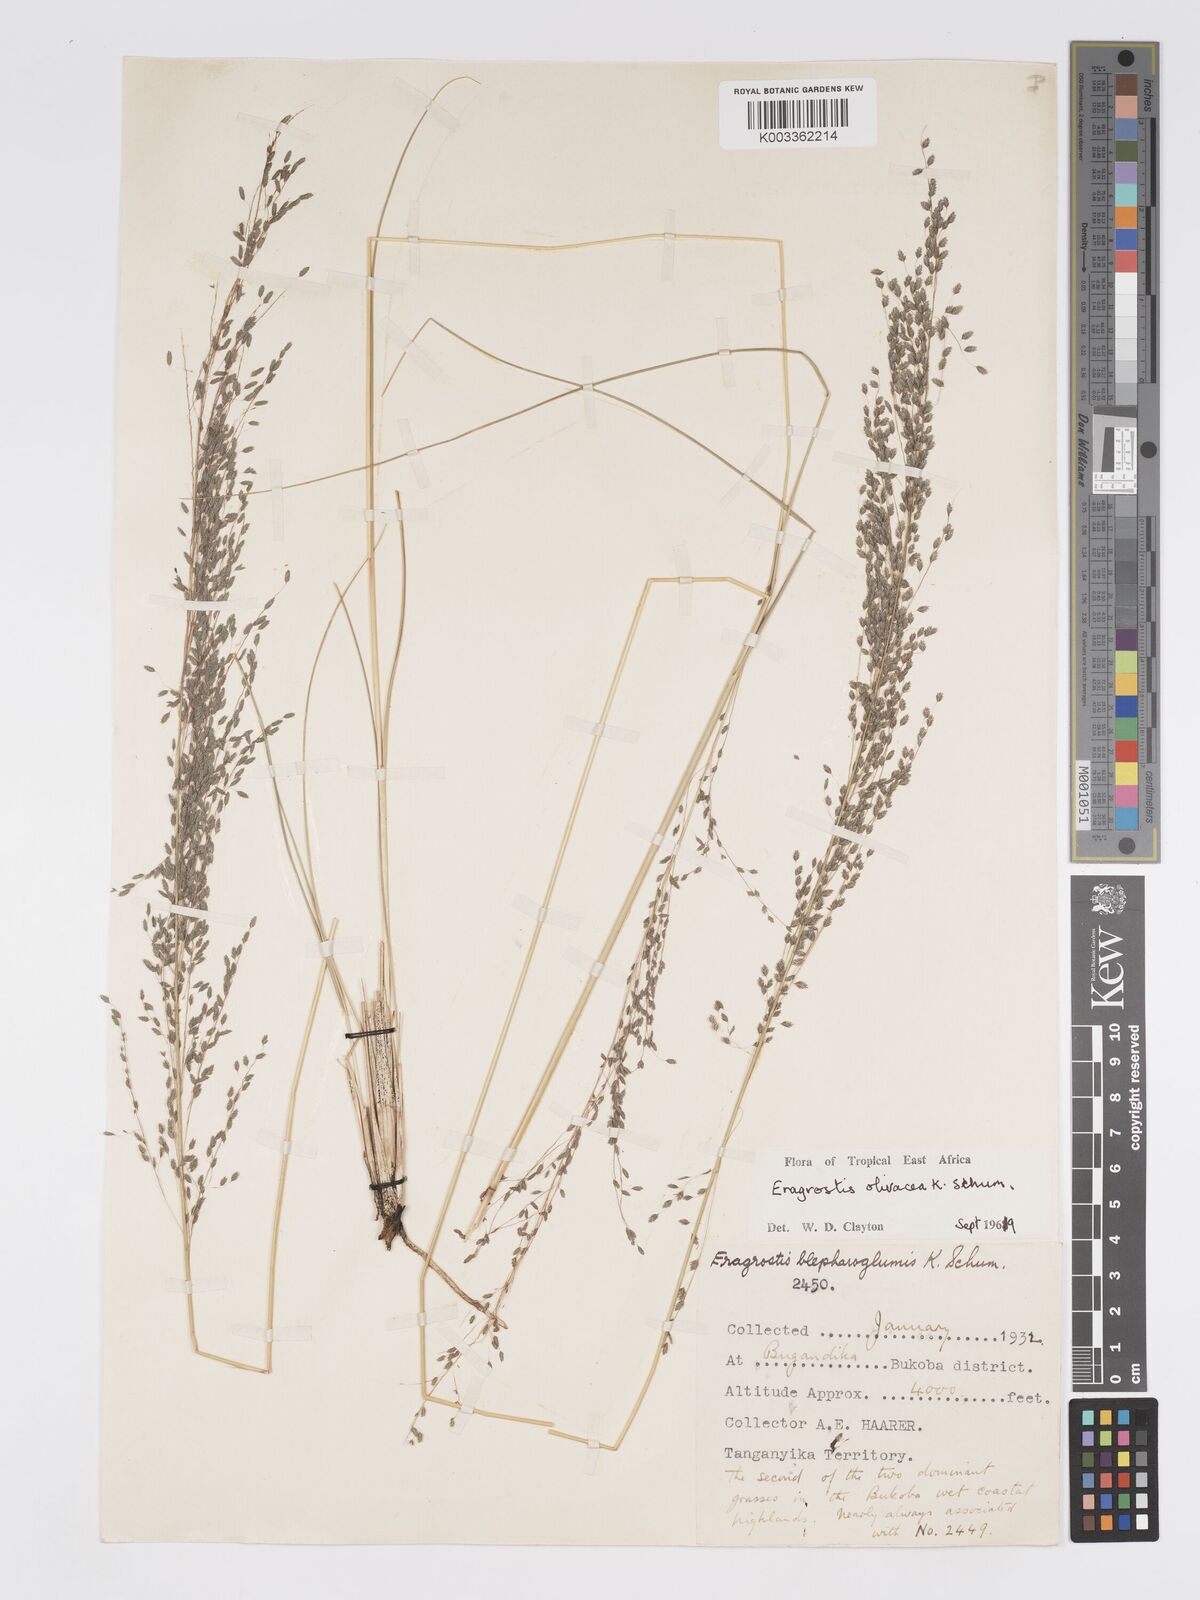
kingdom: Plantae
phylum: Tracheophyta
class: Liliopsida
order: Poales
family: Poaceae
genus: Eragrostis
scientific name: Eragrostis olivacea
